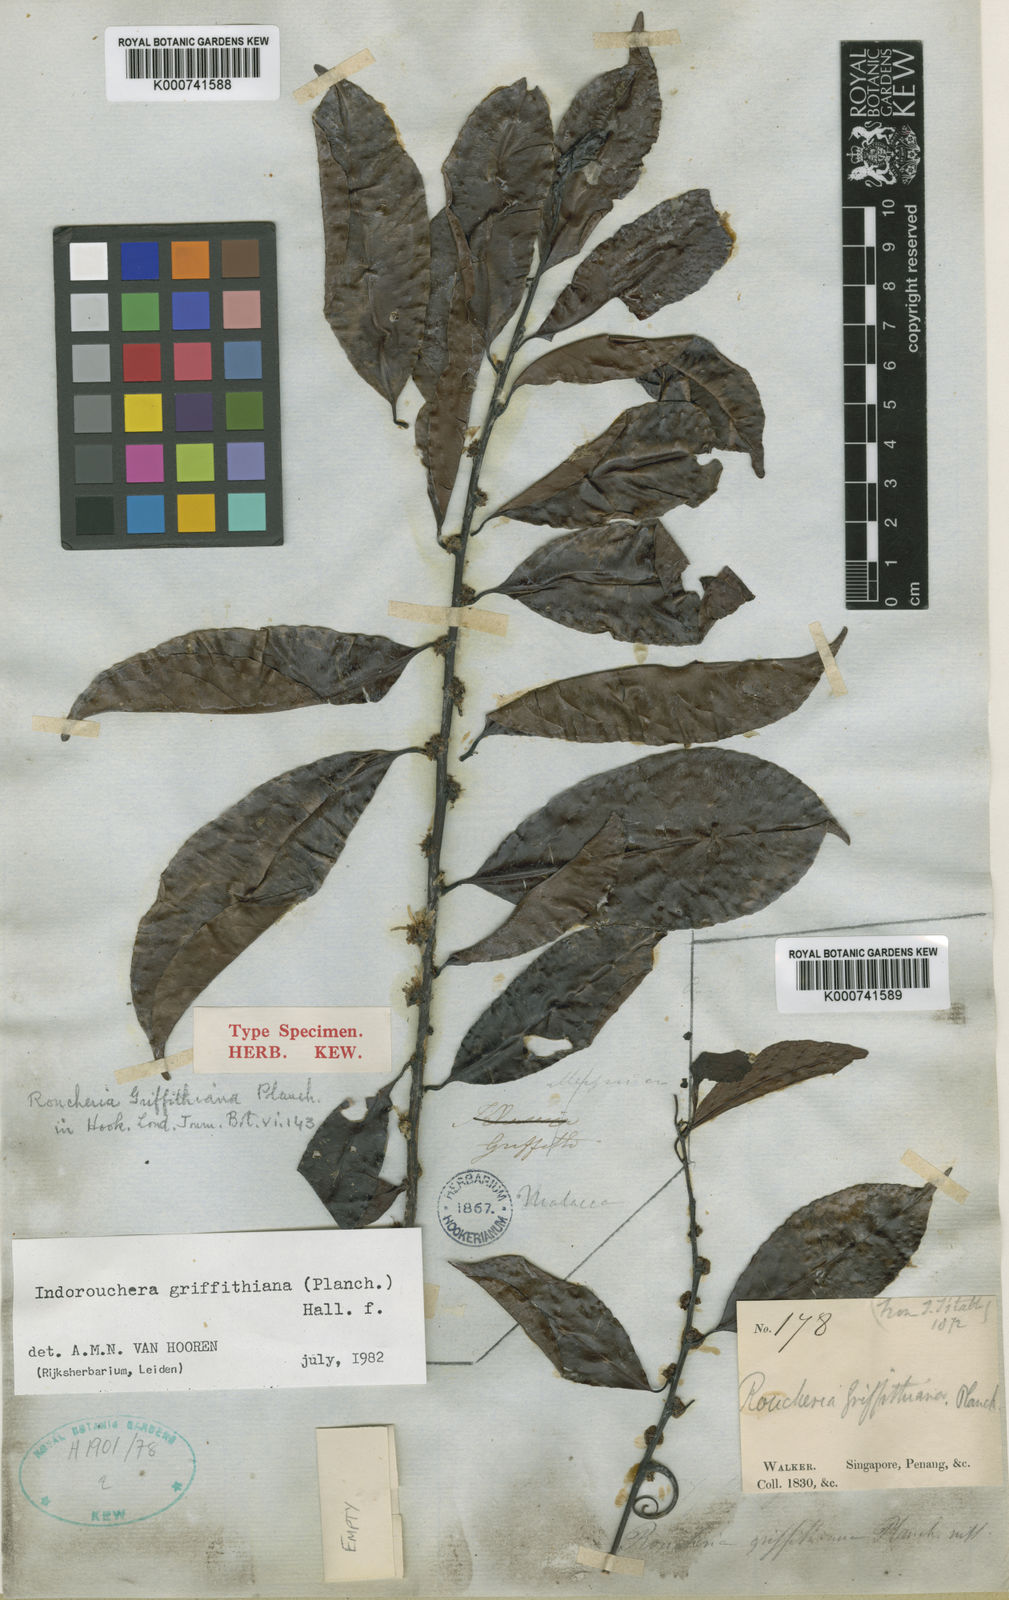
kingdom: Plantae
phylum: Tracheophyta
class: Magnoliopsida
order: Malpighiales
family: Linaceae
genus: Indorouchera
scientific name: Indorouchera griffithiana
